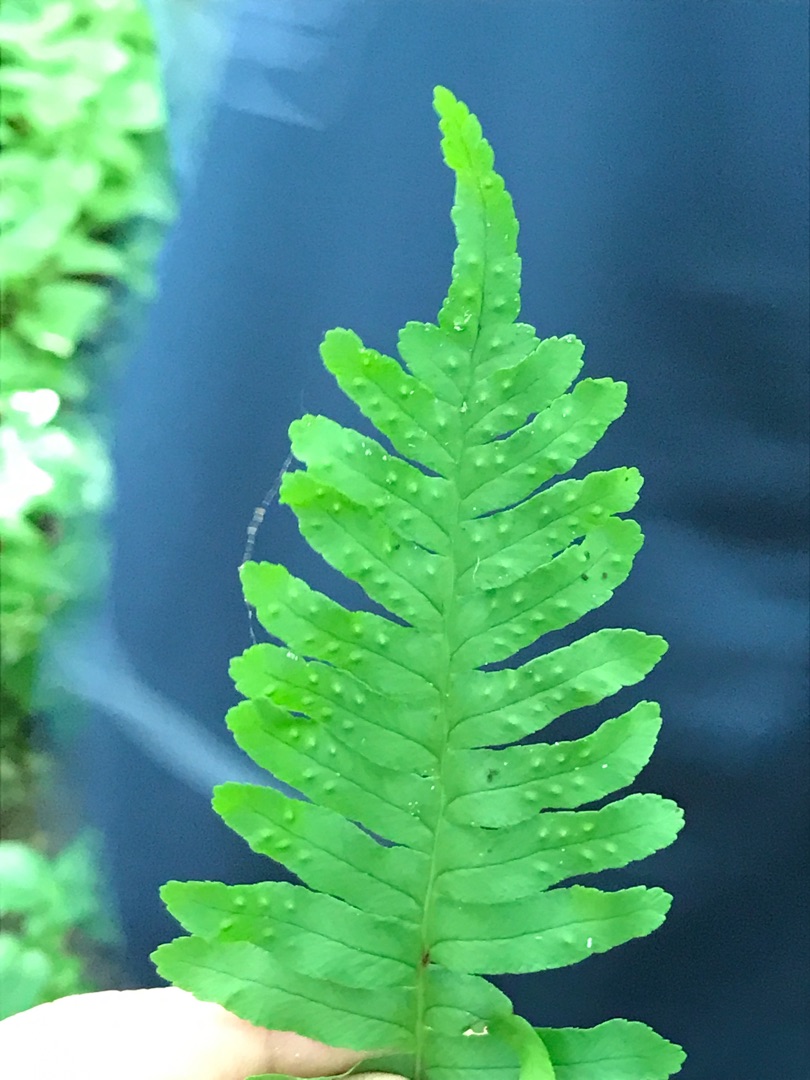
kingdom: Plantae
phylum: Tracheophyta
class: Polypodiopsida
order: Polypodiales
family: Polypodiaceae
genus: Polypodium
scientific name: Polypodium
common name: Engelsødslægten
